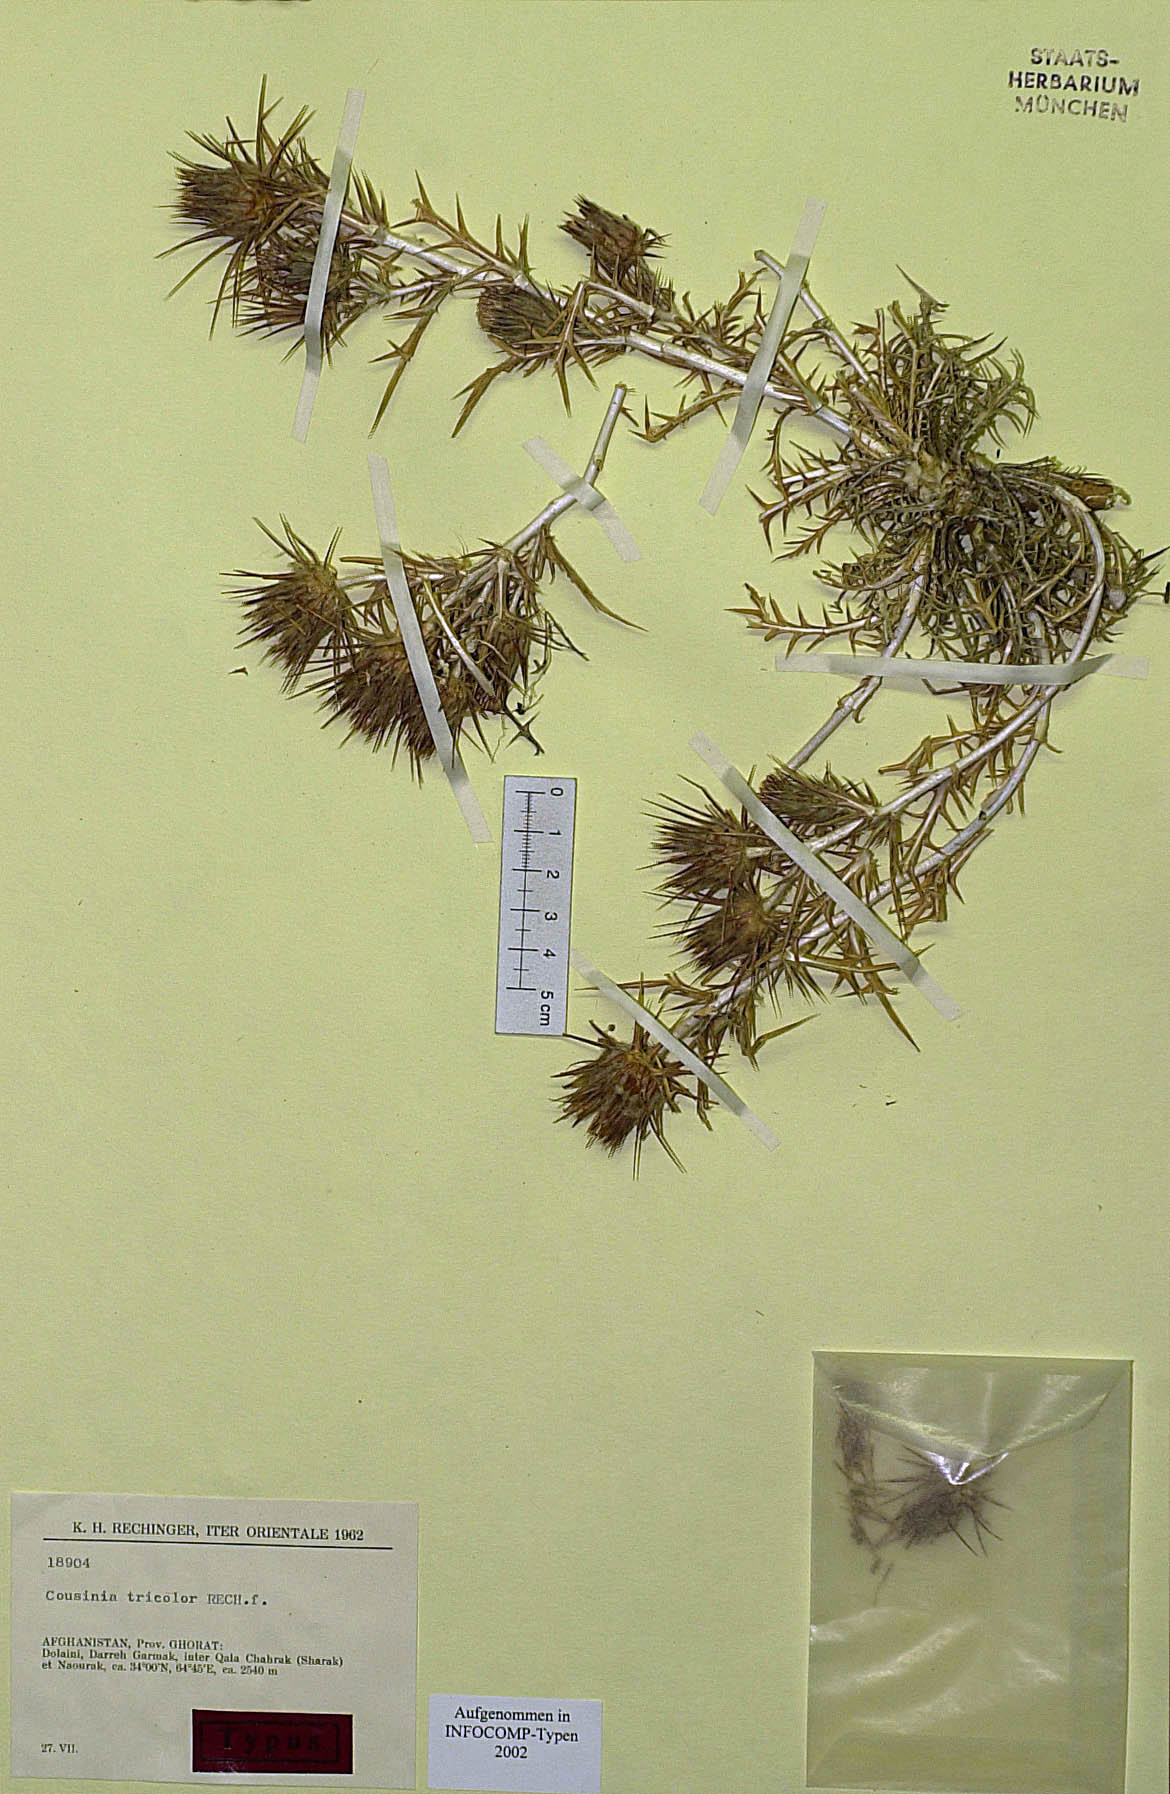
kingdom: Plantae
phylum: Tracheophyta
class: Magnoliopsida
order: Asterales
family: Asteraceae
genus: Cousinia
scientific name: Cousinia tricolor
